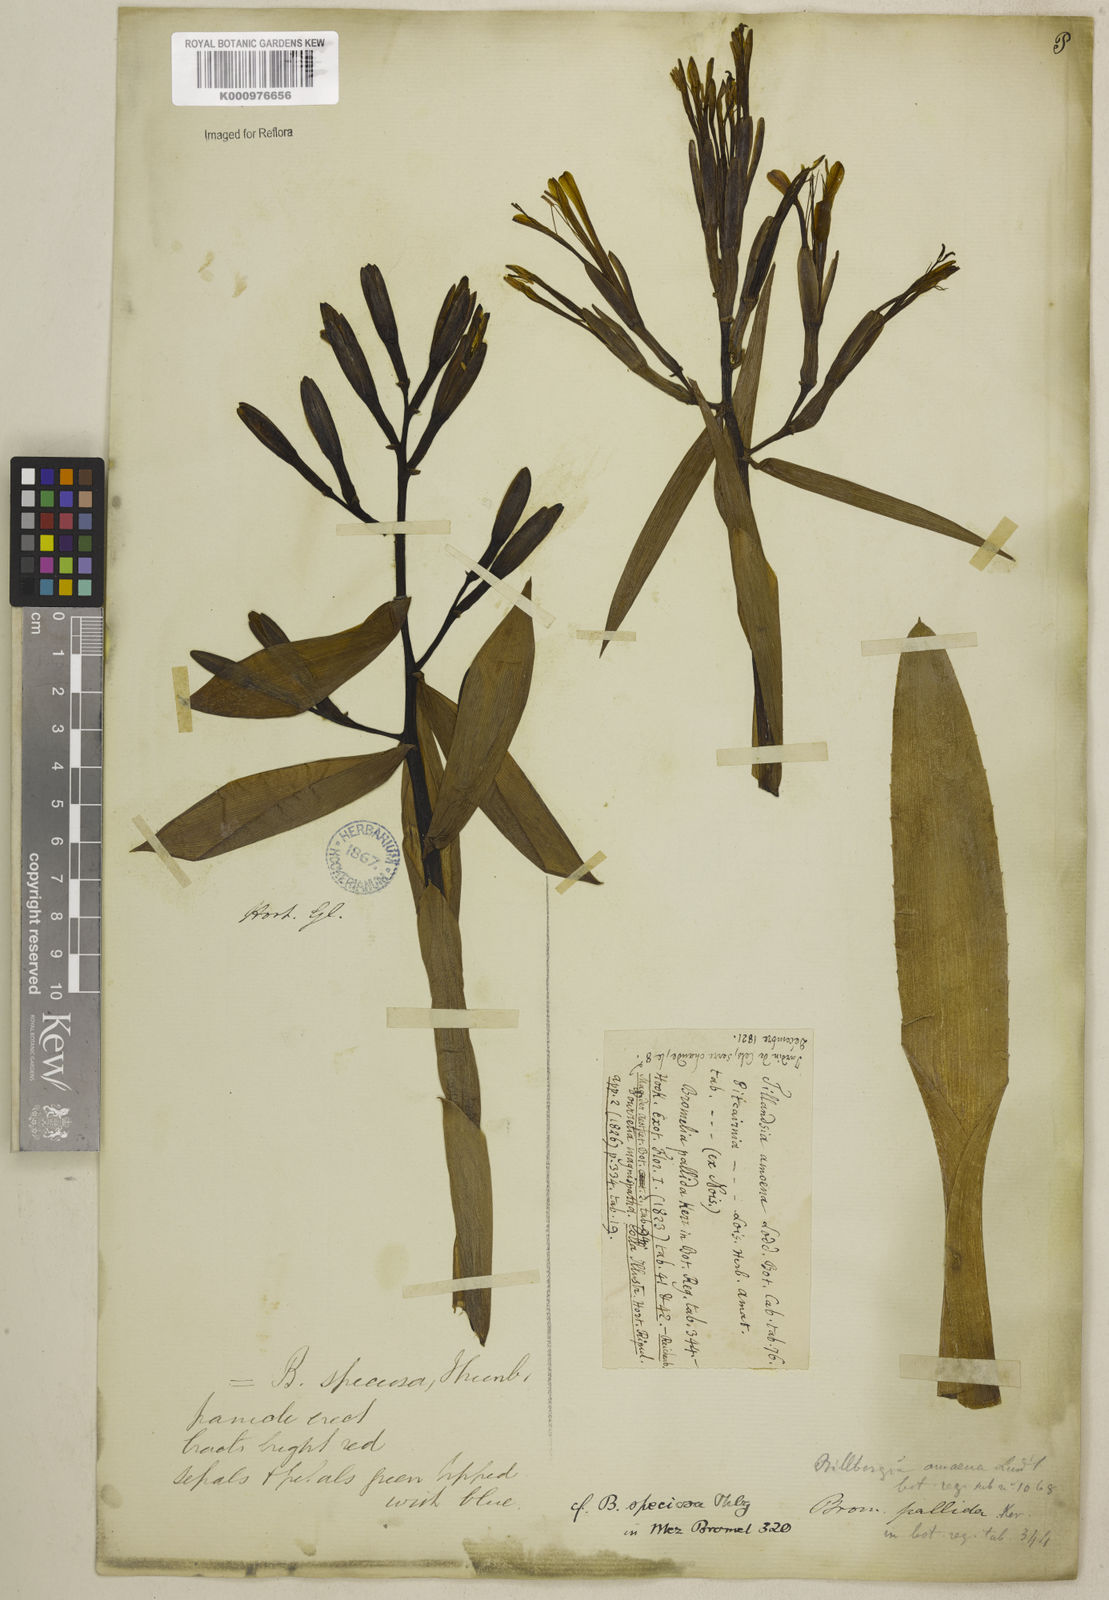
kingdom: Plantae
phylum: Tracheophyta
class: Liliopsida
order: Poales
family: Bromeliaceae
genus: Billbergia
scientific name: Billbergia amoena
